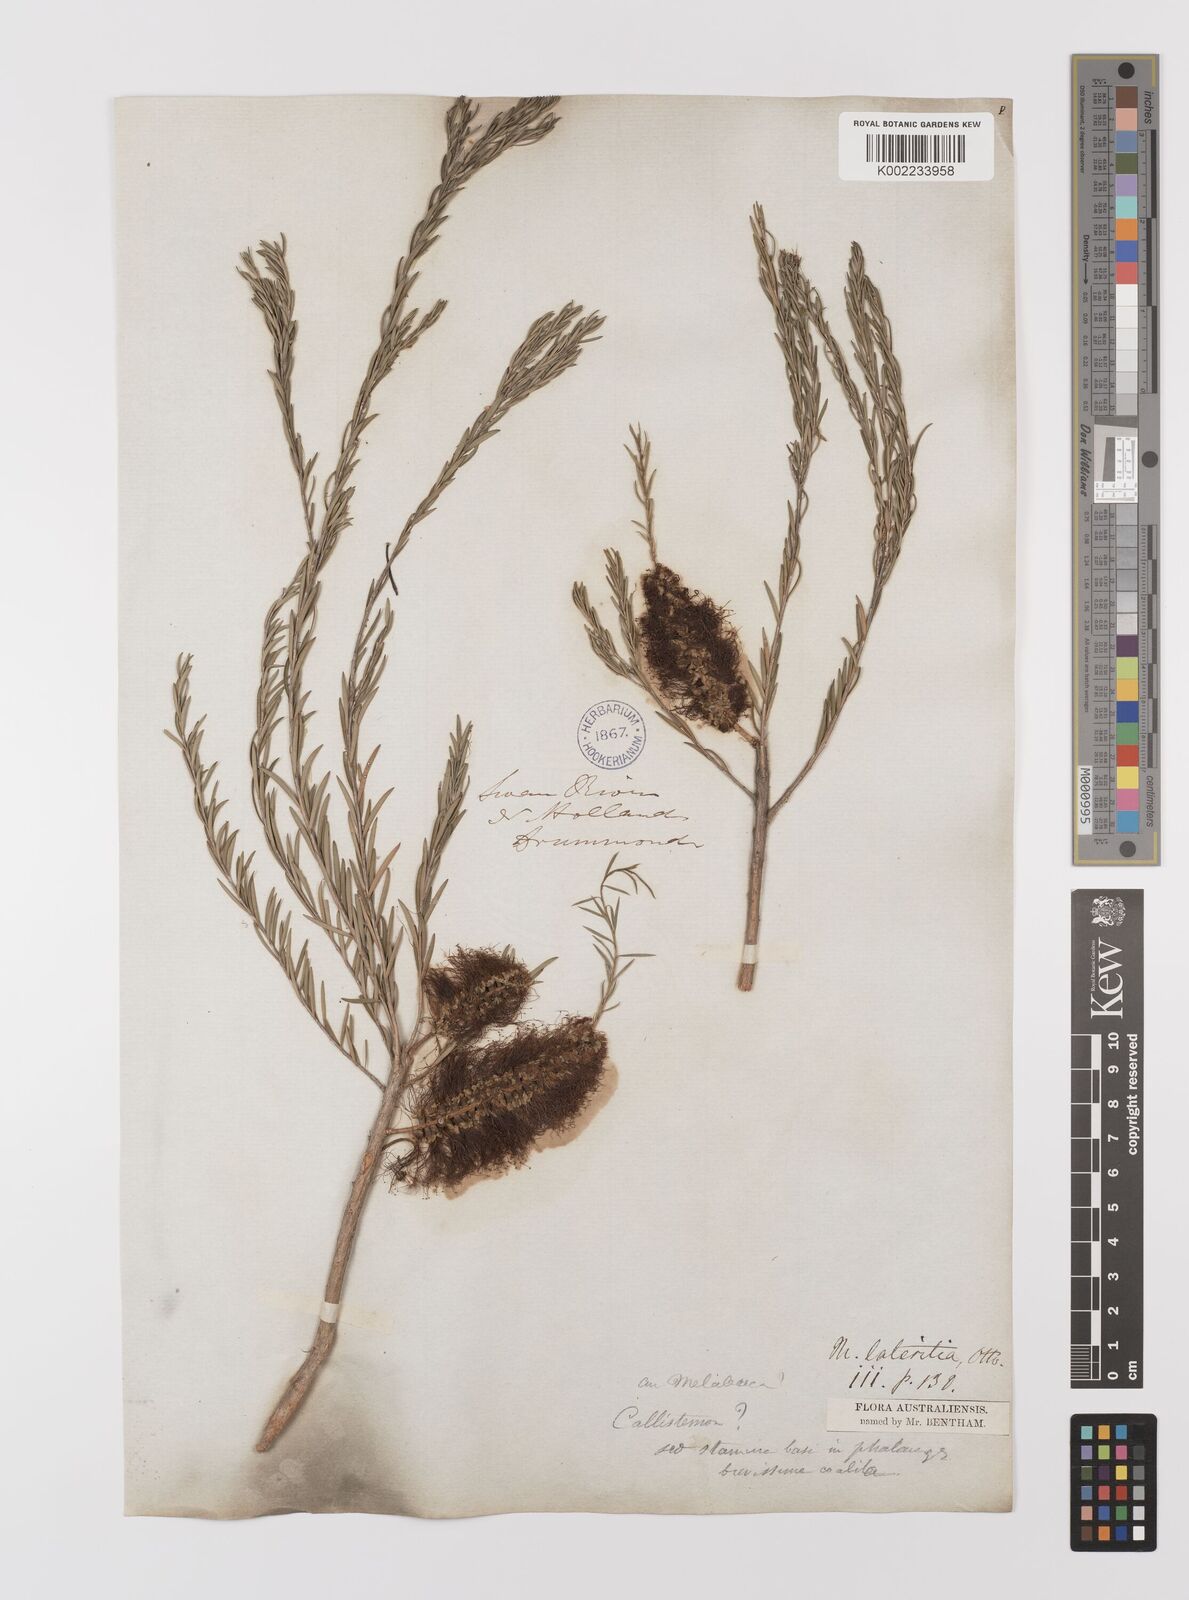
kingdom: Plantae
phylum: Tracheophyta
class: Magnoliopsida
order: Myrtales
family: Myrtaceae
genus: Melaleuca
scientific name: Melaleuca lateritia
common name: Robin red-breast
